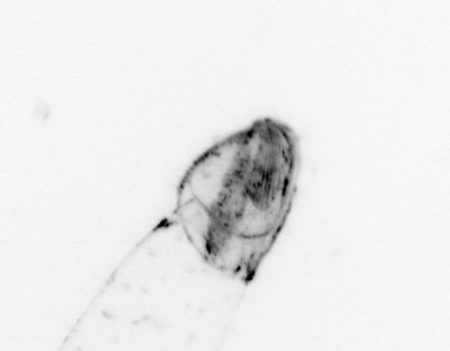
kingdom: Animalia
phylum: Chaetognatha
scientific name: Chaetognatha
